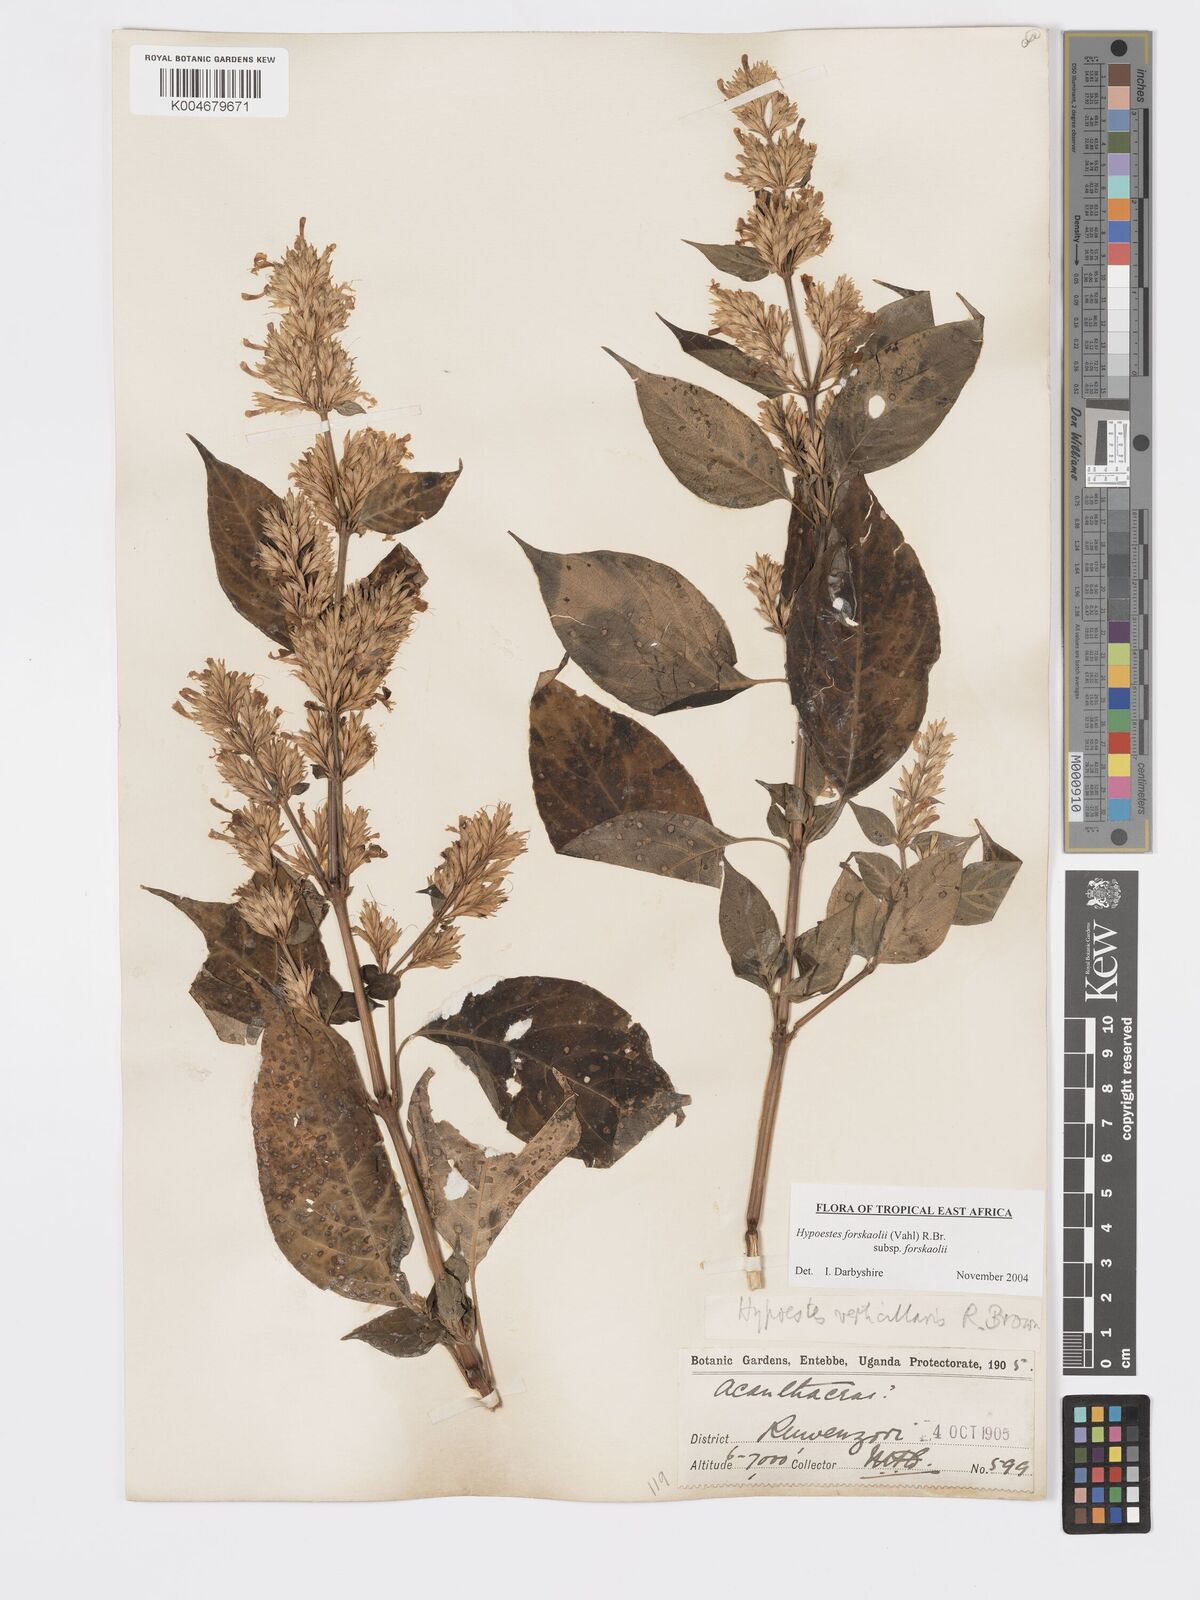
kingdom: Plantae
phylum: Tracheophyta
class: Magnoliopsida
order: Lamiales
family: Acanthaceae
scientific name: Acanthaceae
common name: Acanthaceae
